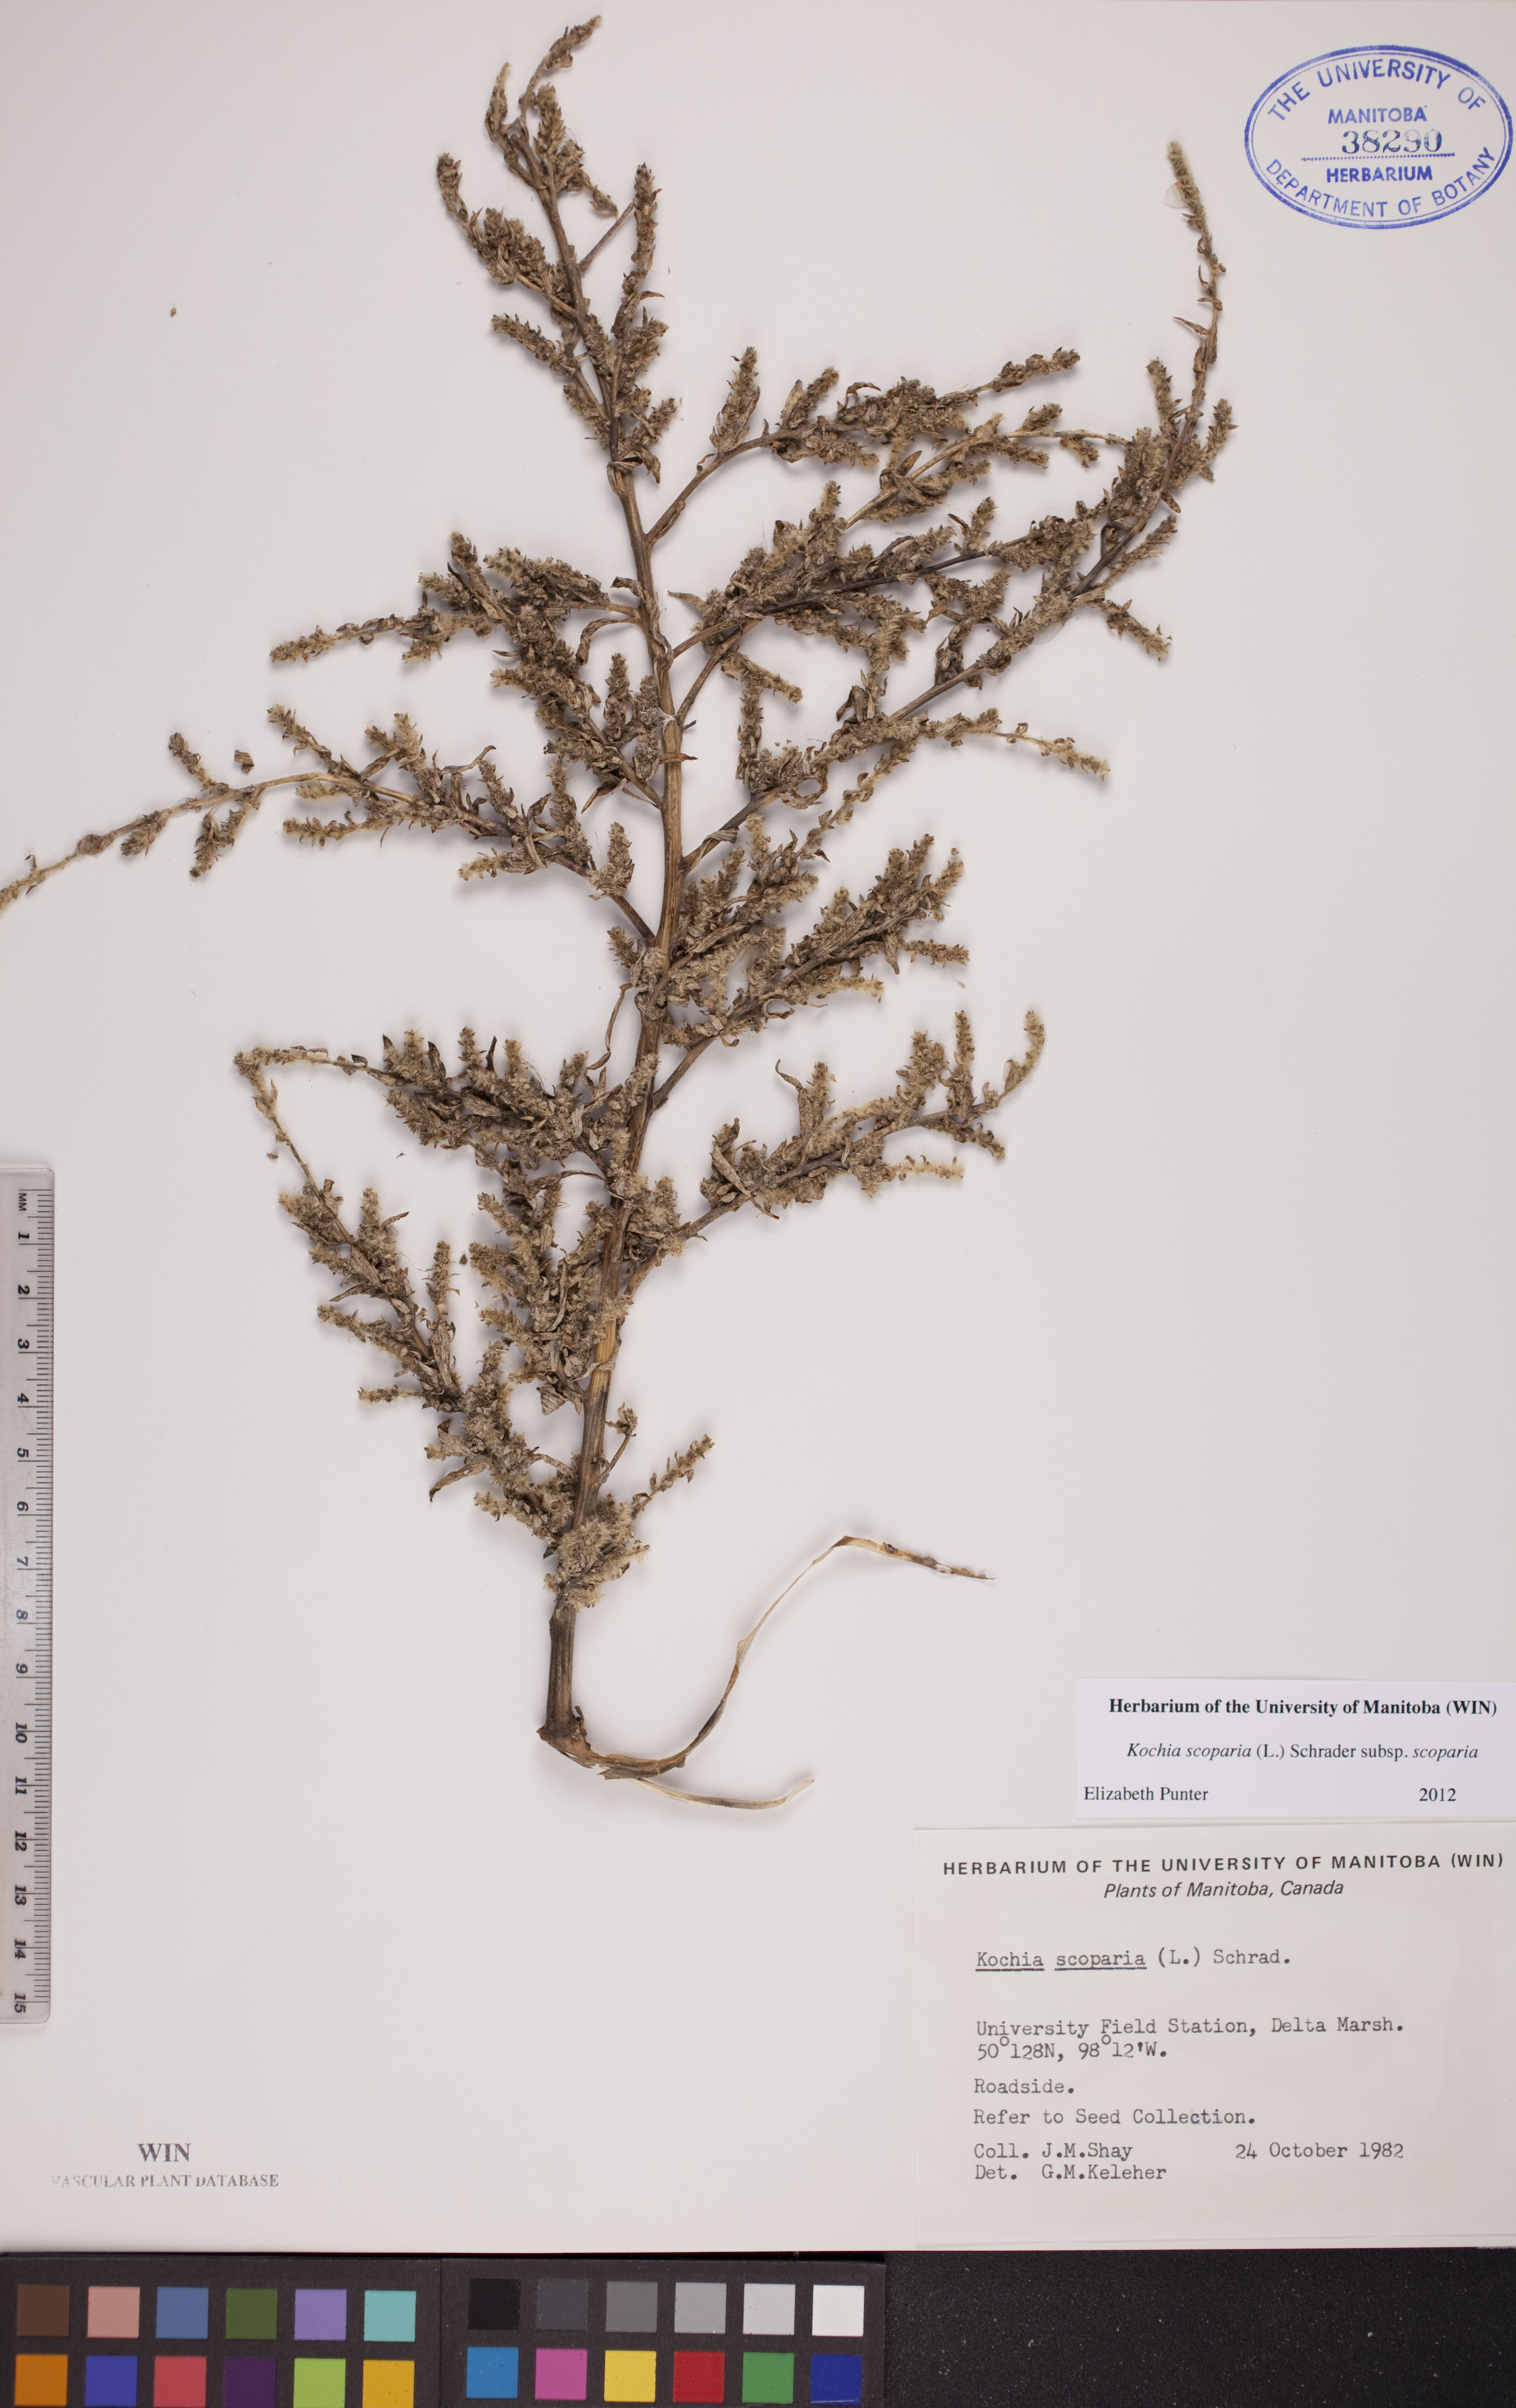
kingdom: Plantae
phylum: Tracheophyta
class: Magnoliopsida
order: Caryophyllales
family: Amaranthaceae
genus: Bassia
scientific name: Bassia scoparia
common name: Belvedere
